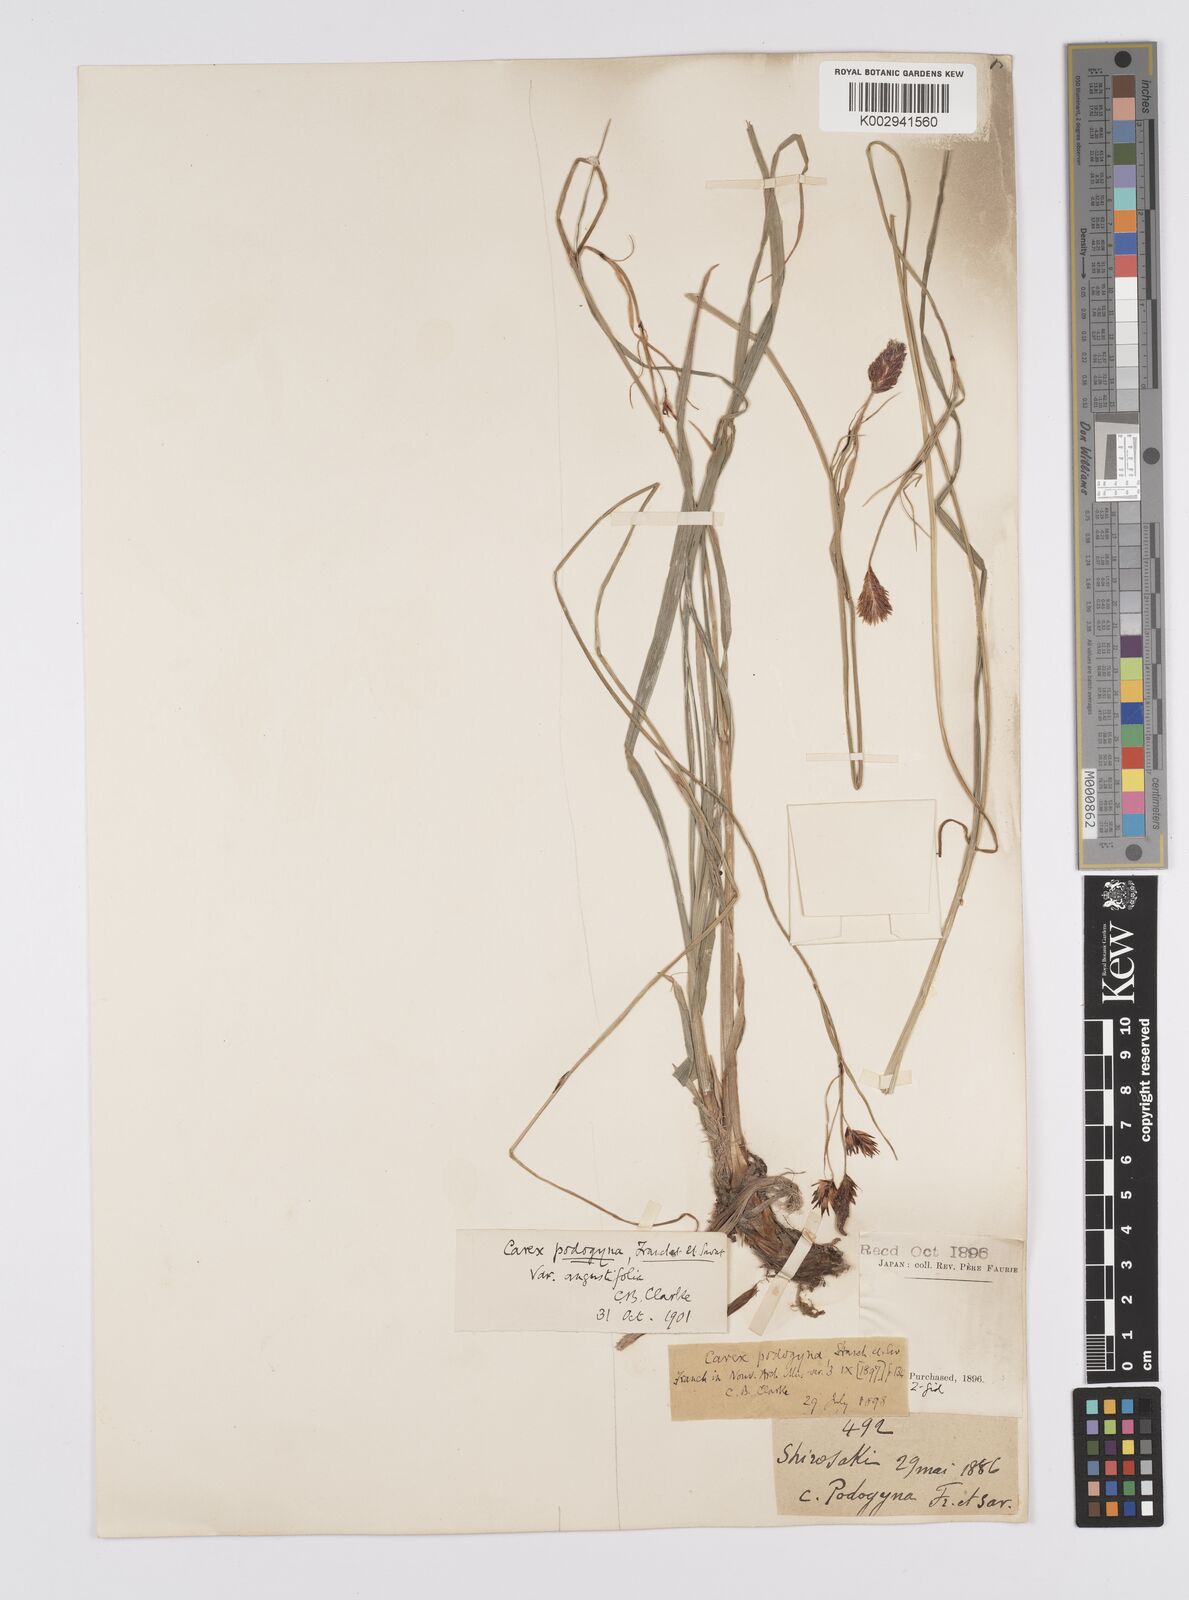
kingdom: Plantae
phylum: Tracheophyta
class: Liliopsida
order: Poales
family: Cyperaceae
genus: Carex
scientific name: Carex podogyna
